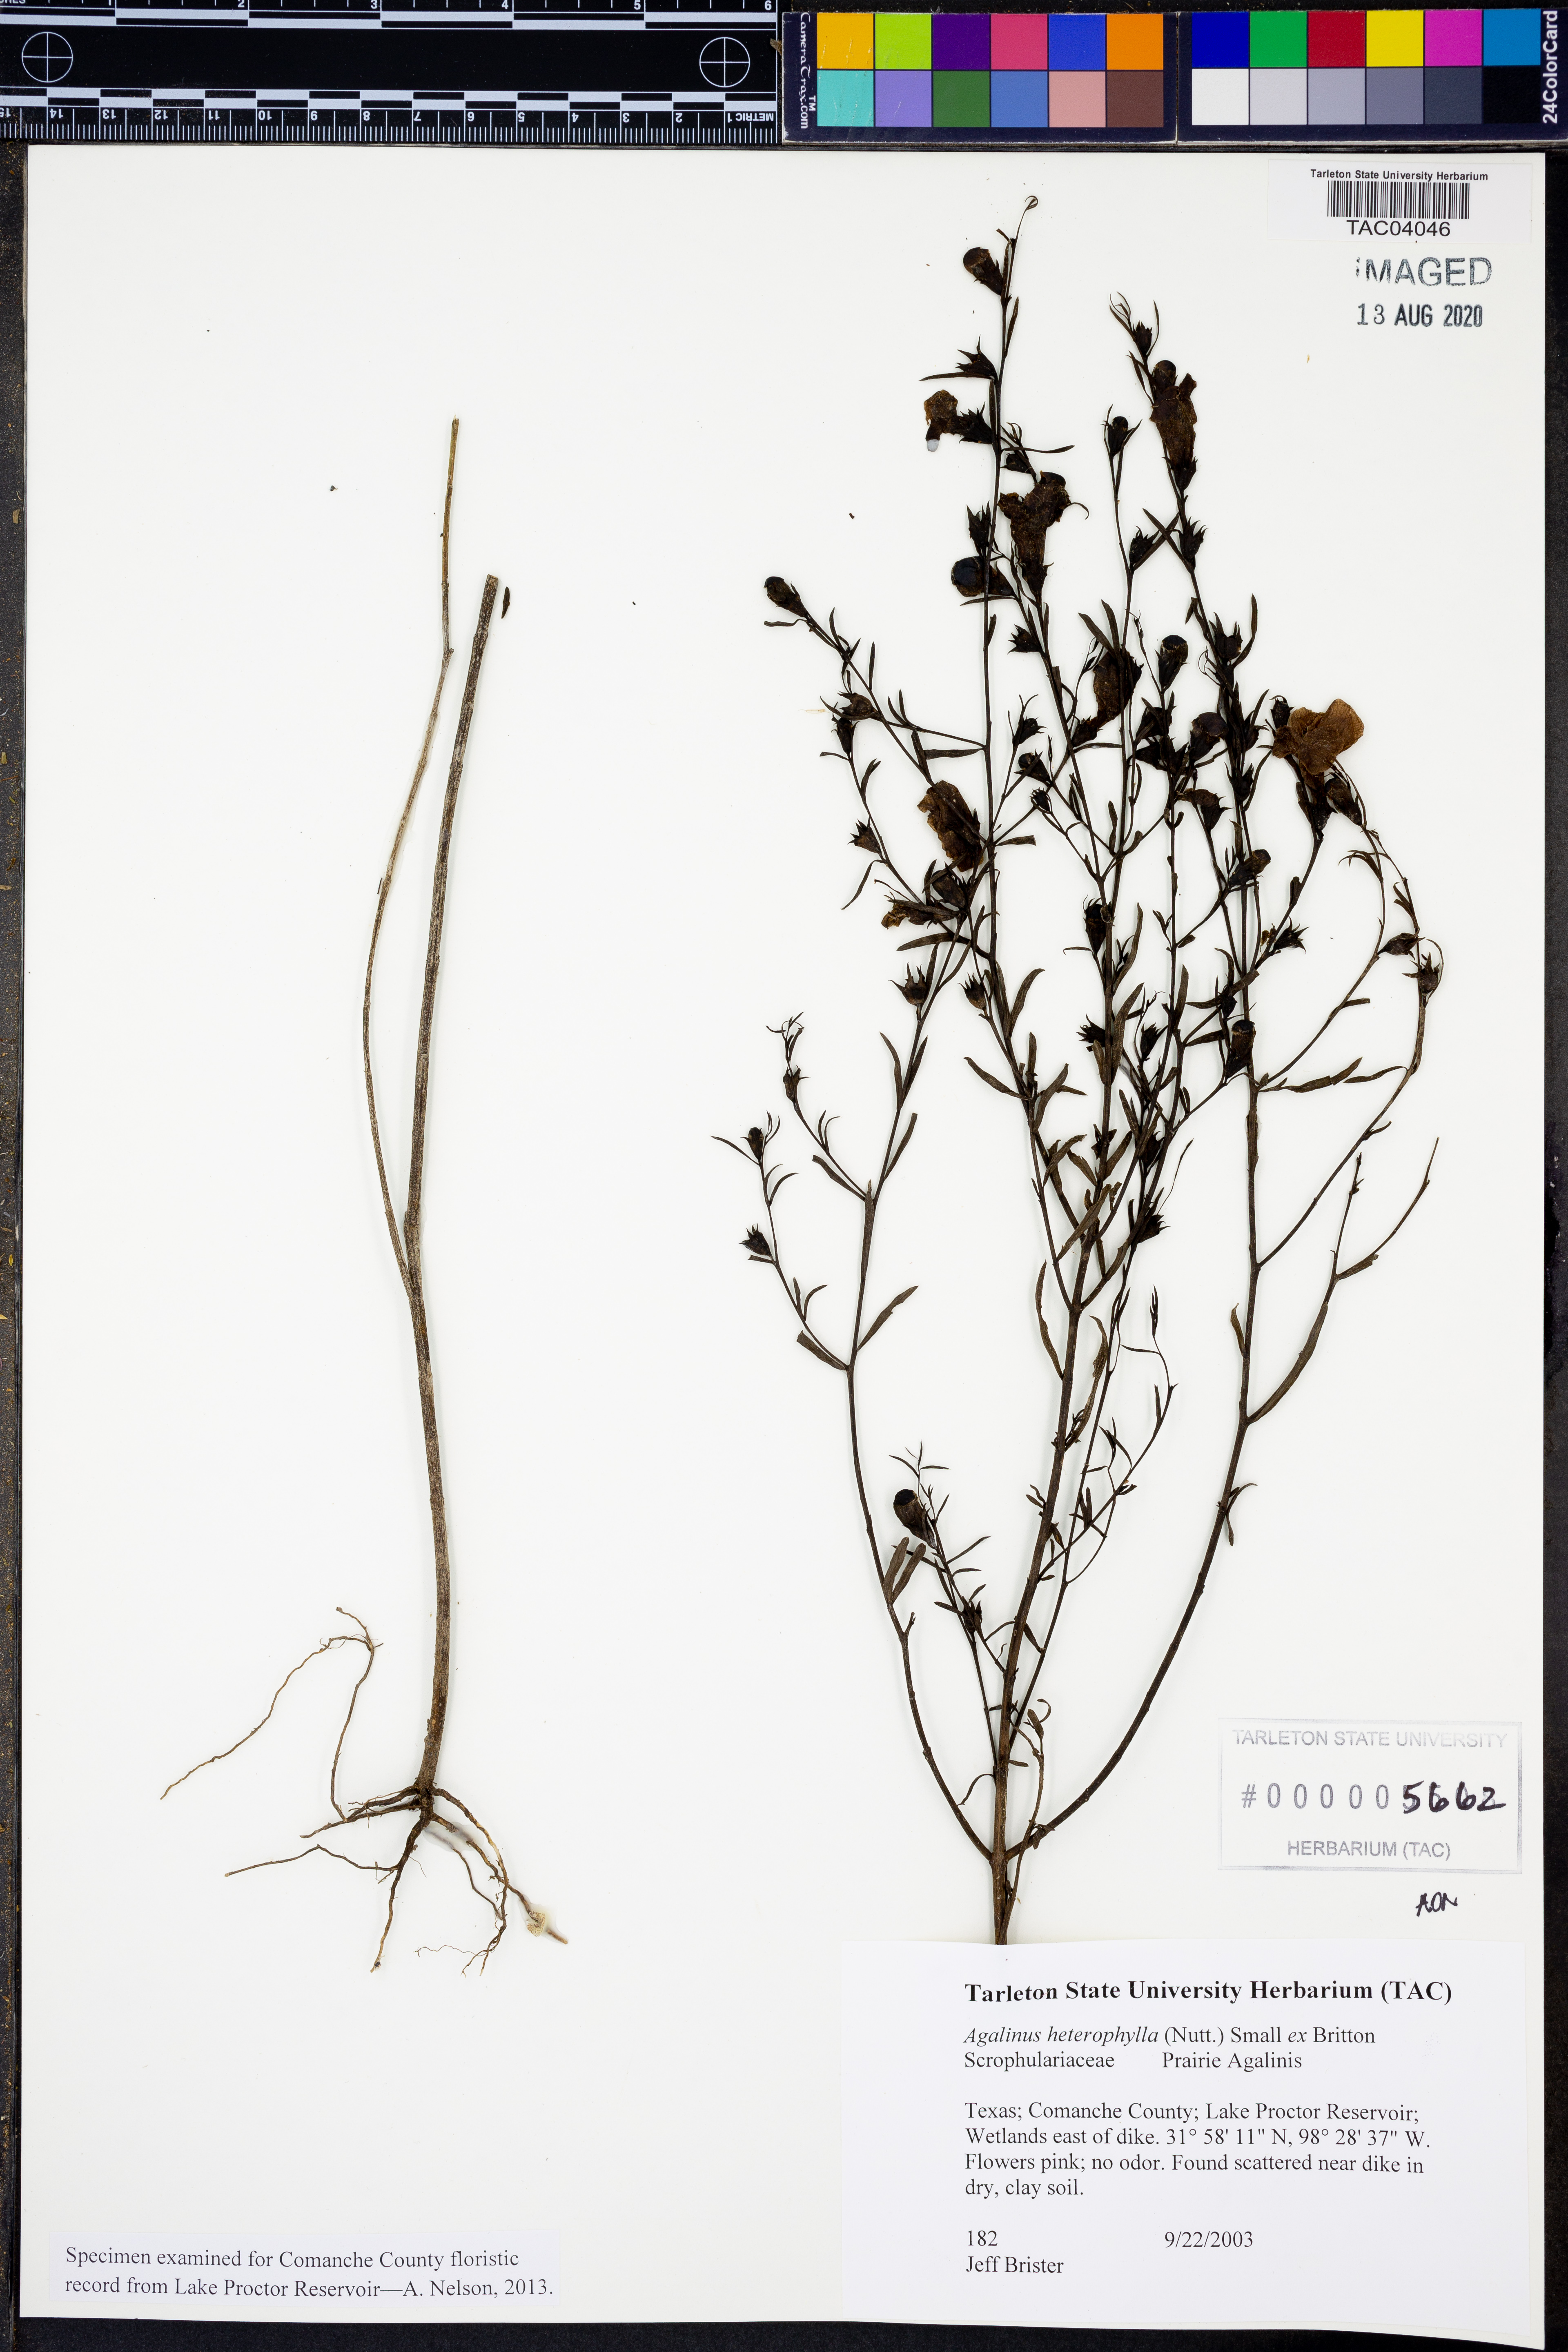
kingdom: Plantae
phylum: Tracheophyta
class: Magnoliopsida
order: Lamiales
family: Orobanchaceae
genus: Agalinis
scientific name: Agalinis heterophylla
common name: Prairie agalinis
